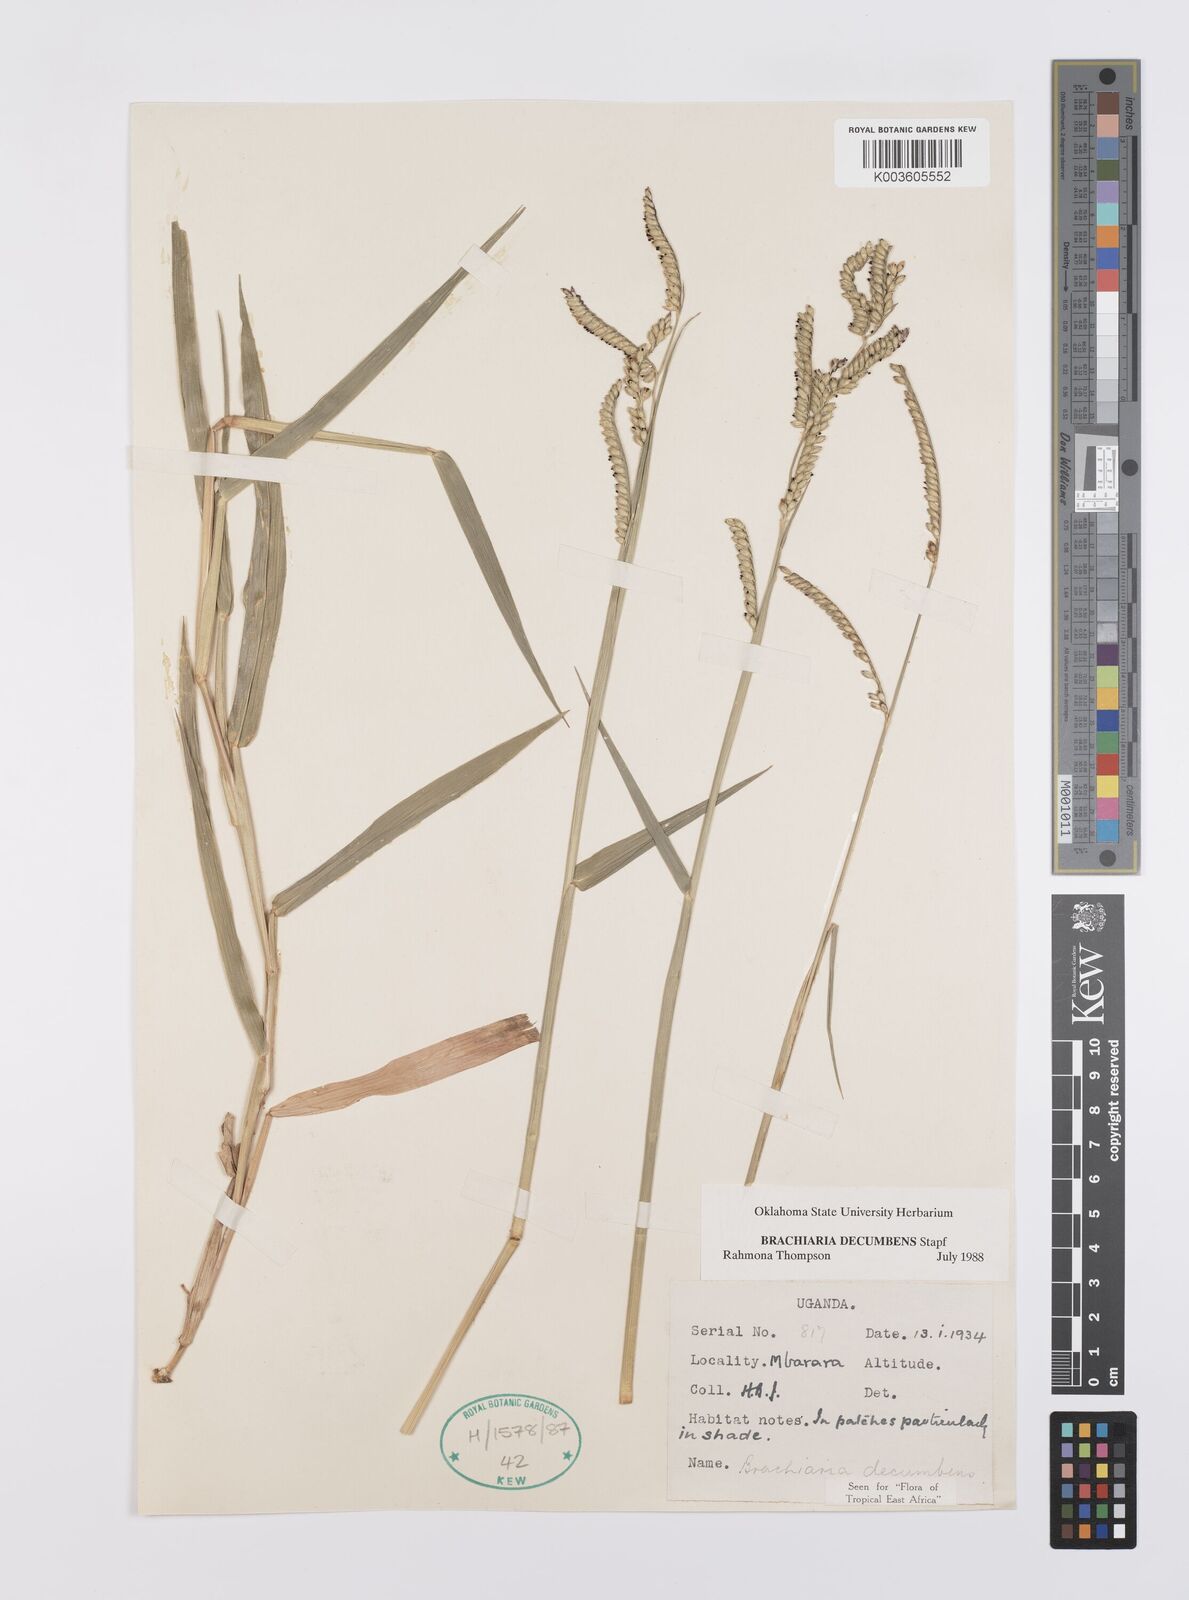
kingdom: Plantae
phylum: Tracheophyta
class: Liliopsida
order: Poales
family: Poaceae
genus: Urochloa
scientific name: Urochloa eminii
